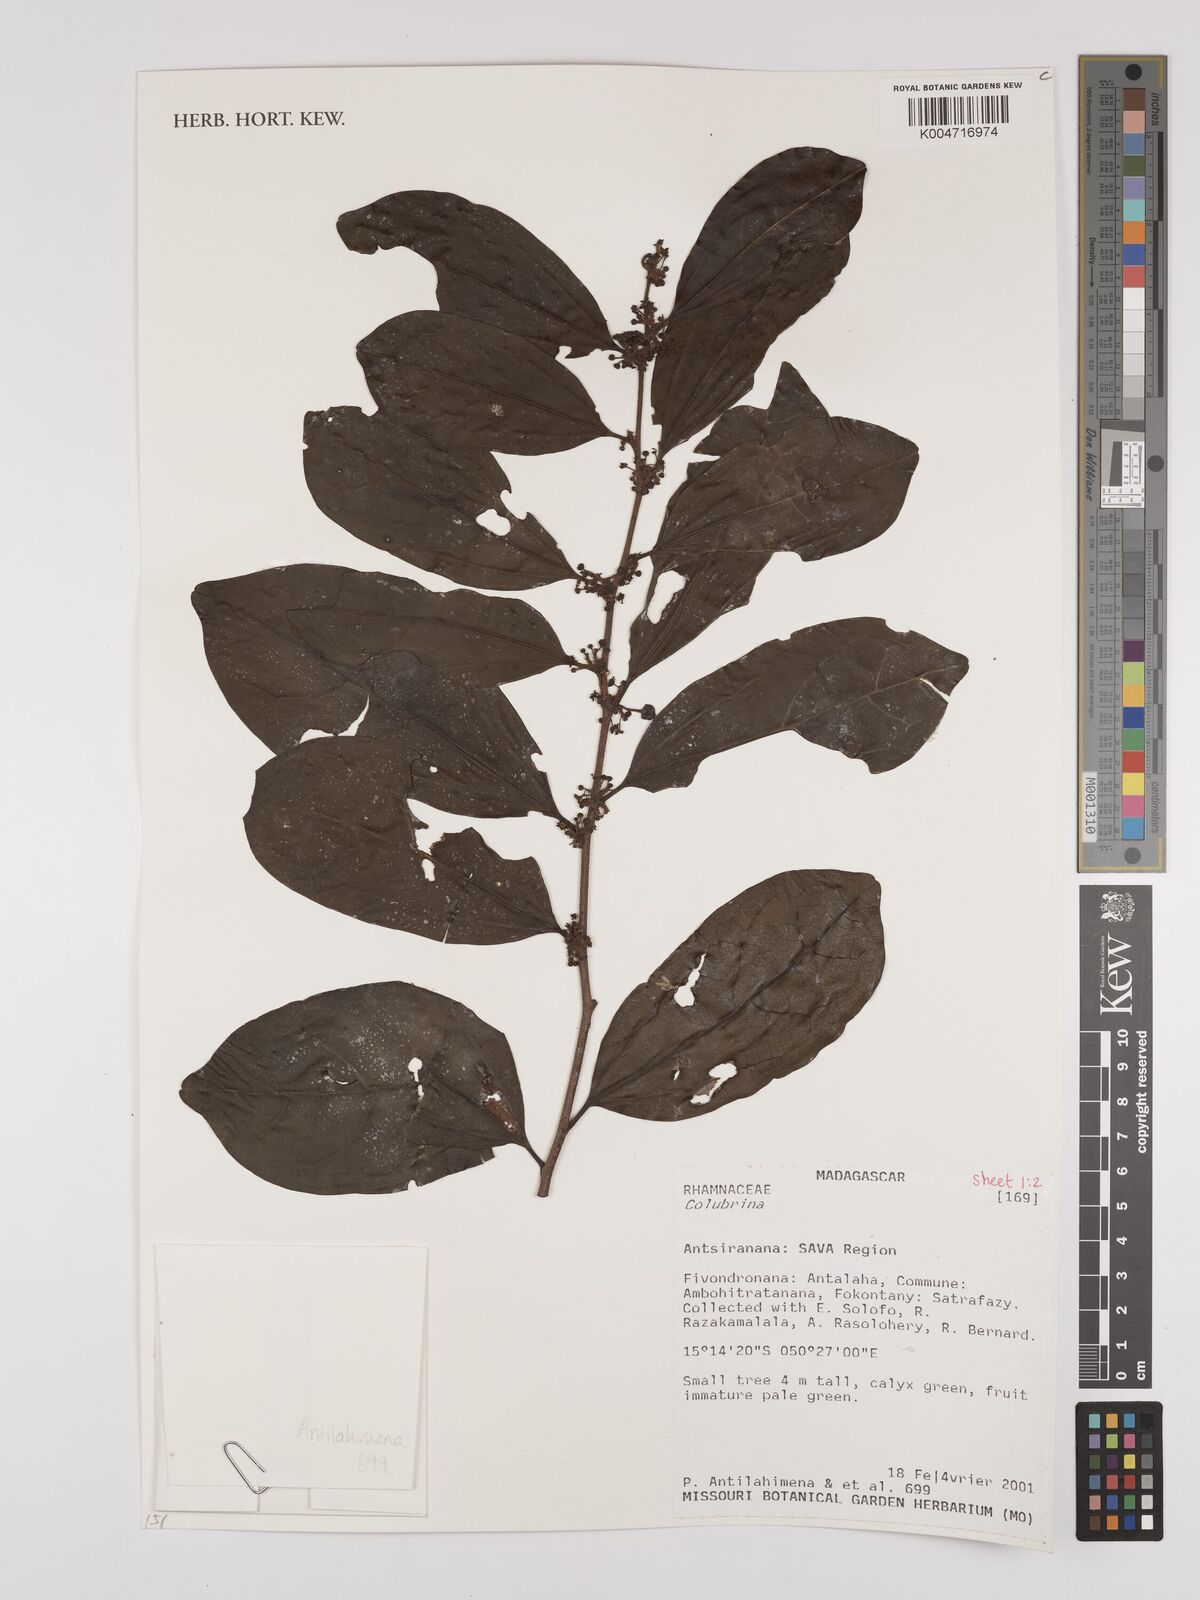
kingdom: Plantae
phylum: Tracheophyta
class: Magnoliopsida
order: Rosales
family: Rhamnaceae
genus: Colubrina
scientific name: Colubrina
